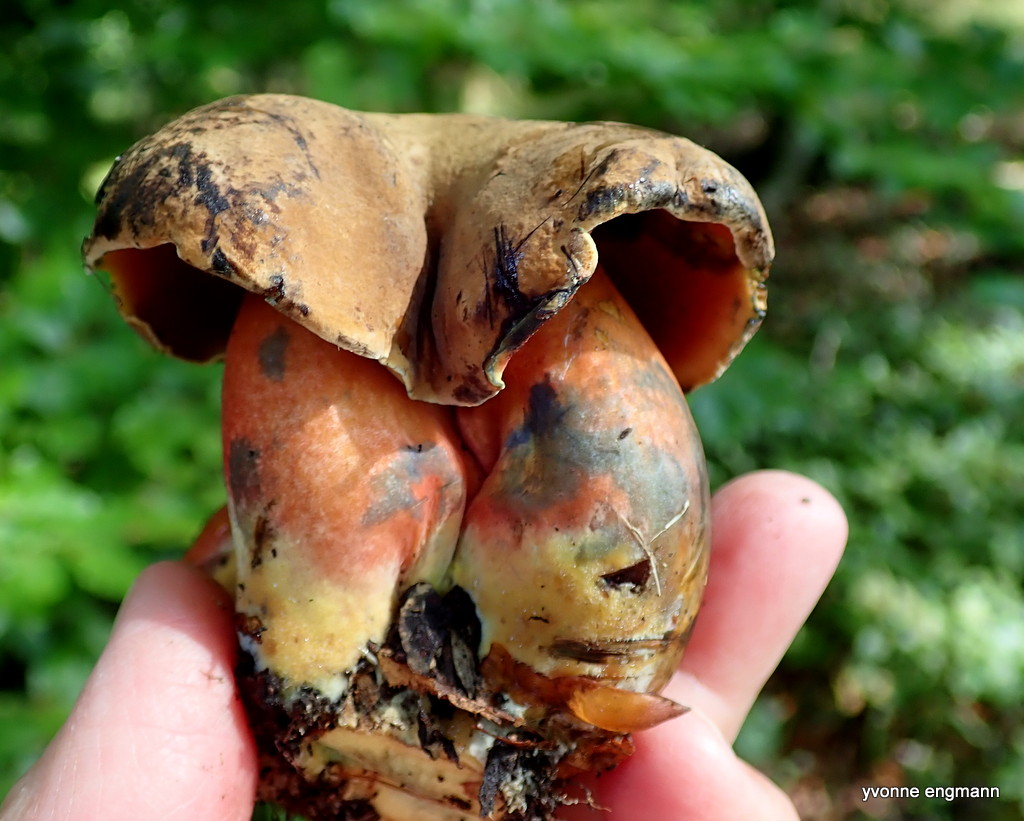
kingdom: Fungi
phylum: Basidiomycota
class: Agaricomycetes
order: Boletales
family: Boletaceae
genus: Neoboletus
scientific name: Neoboletus erythropus
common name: punktstokket indigorørhat
